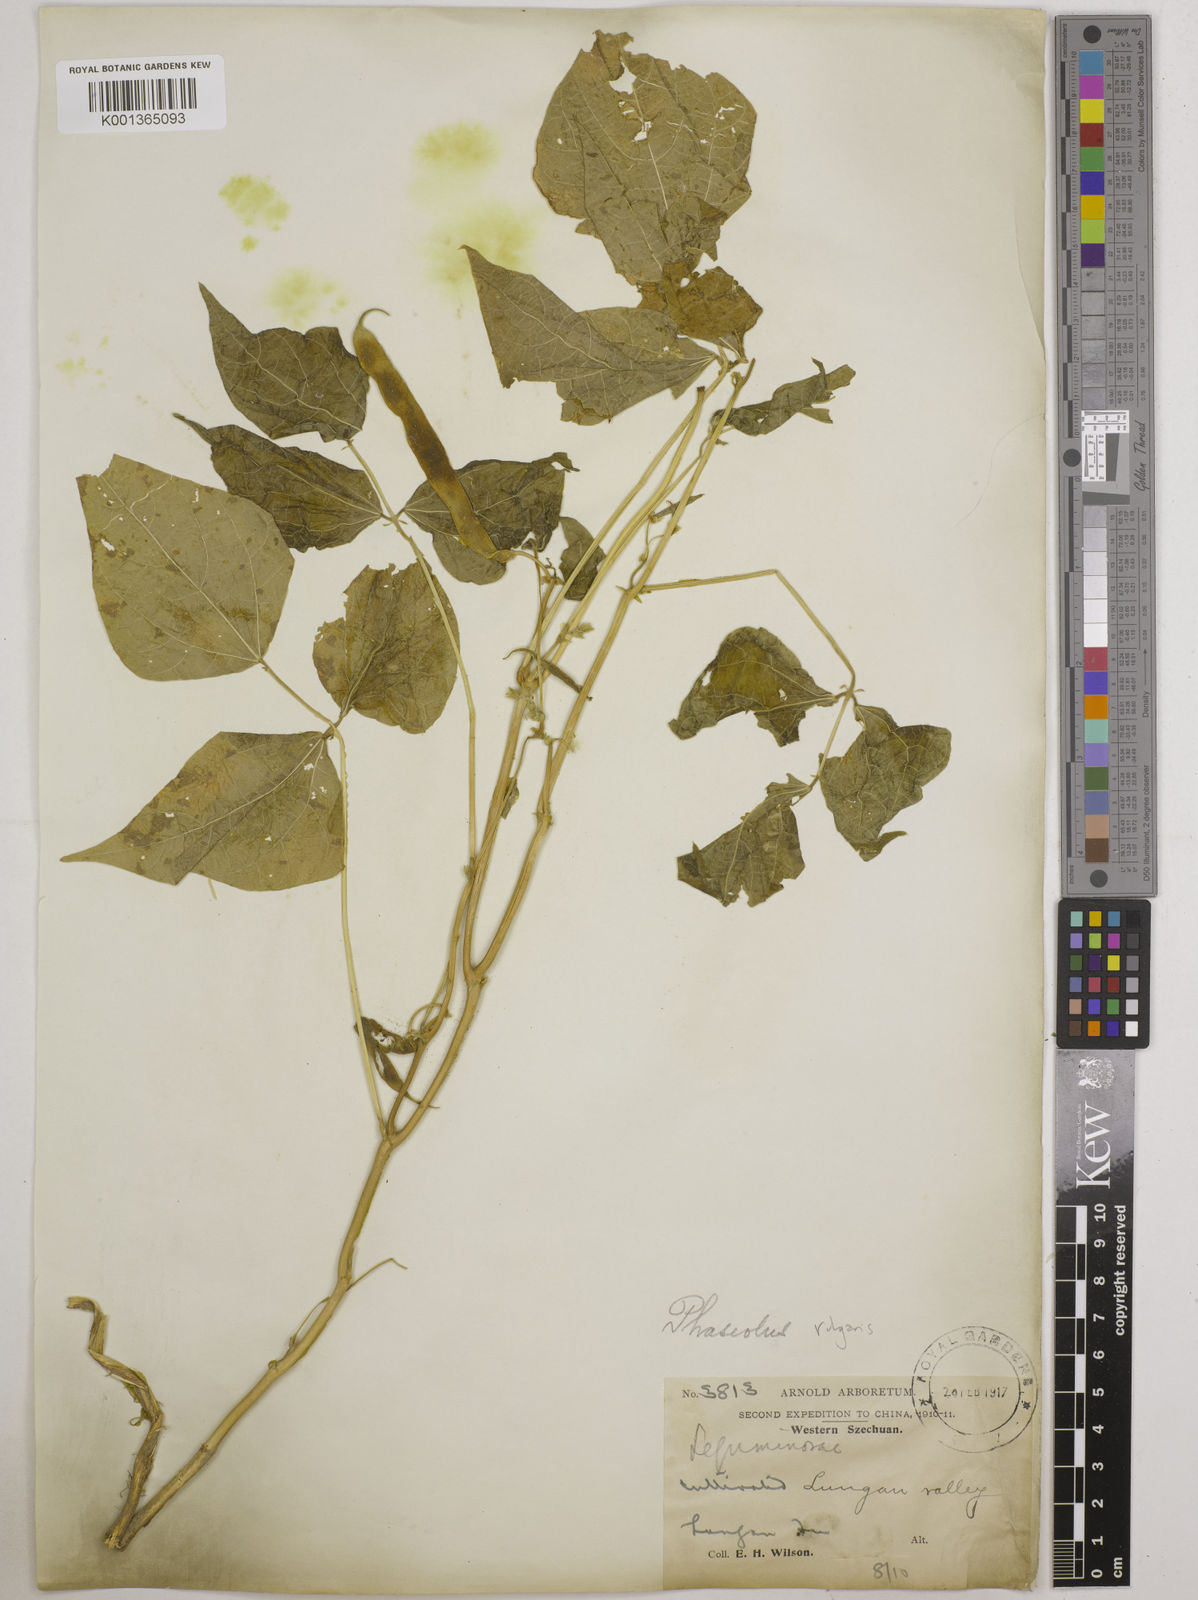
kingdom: Plantae
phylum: Tracheophyta
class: Magnoliopsida
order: Fabales
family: Fabaceae
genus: Phaseolus
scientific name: Phaseolus vulgaris
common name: Bean
